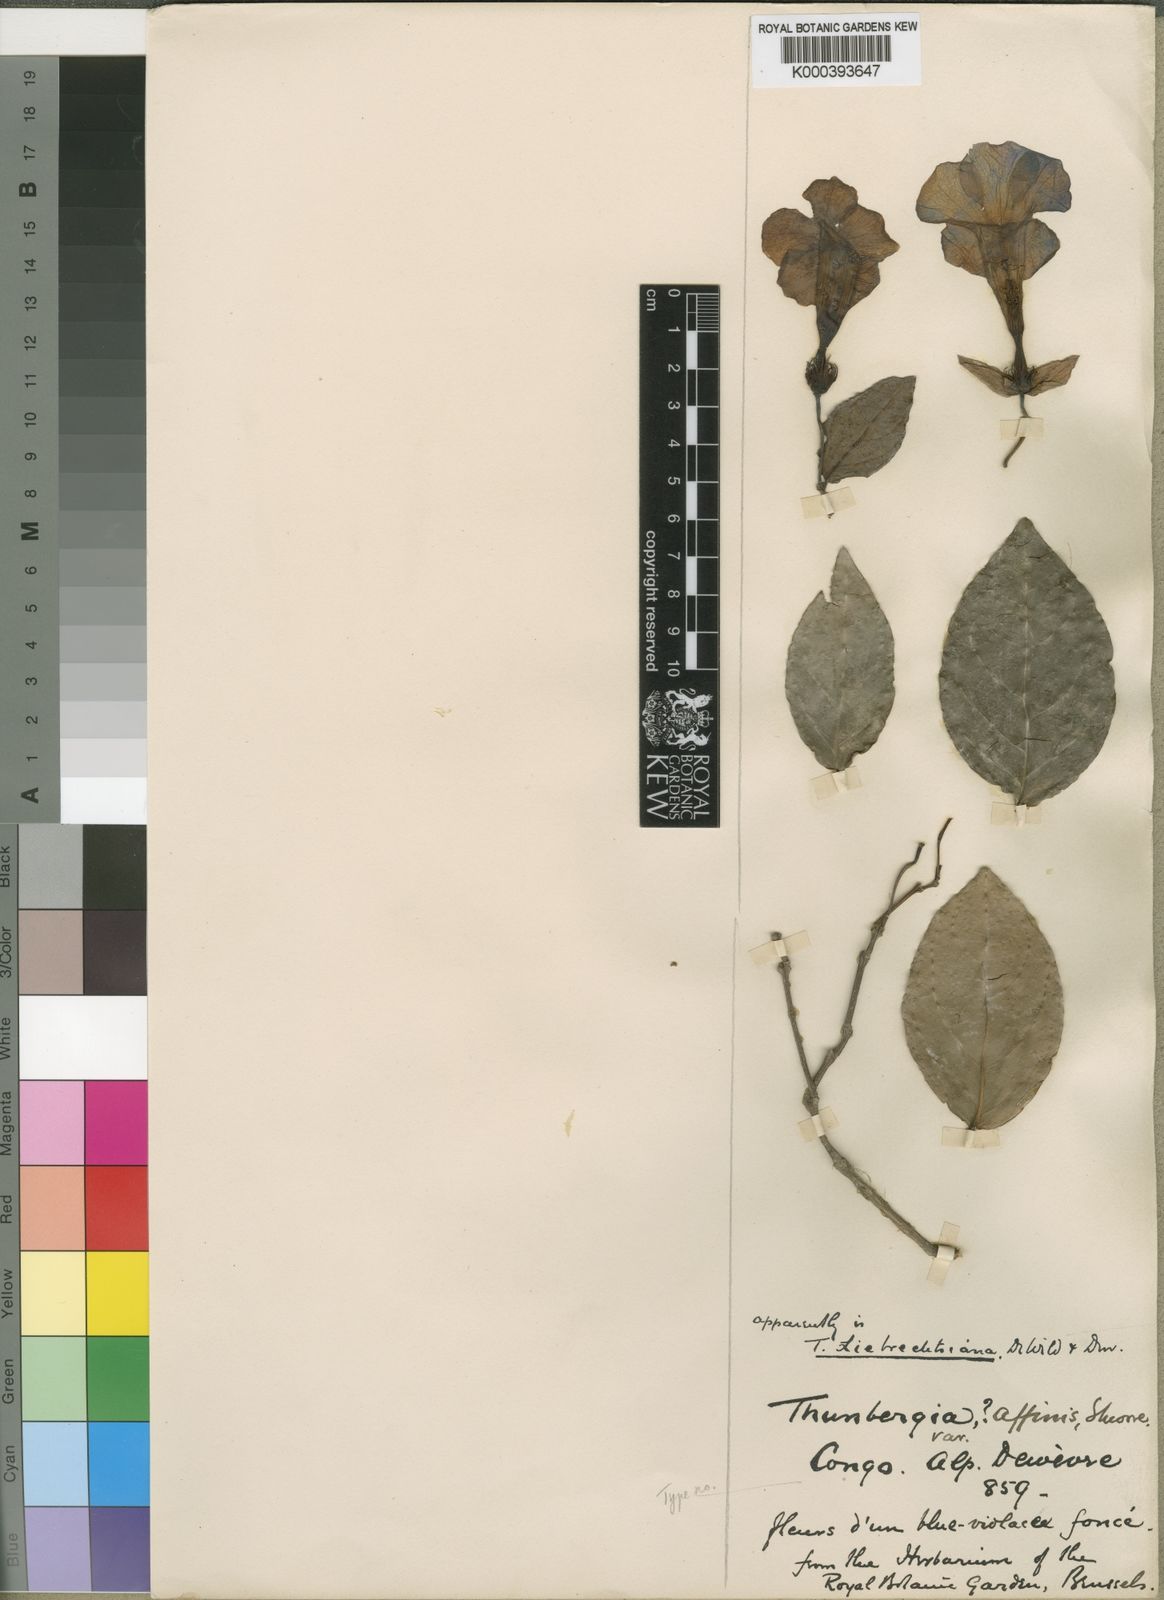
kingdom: Plantae
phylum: Tracheophyta
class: Magnoliopsida
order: Lamiales
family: Acanthaceae
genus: Thunbergia
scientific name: Thunbergia liebrechtsiana
